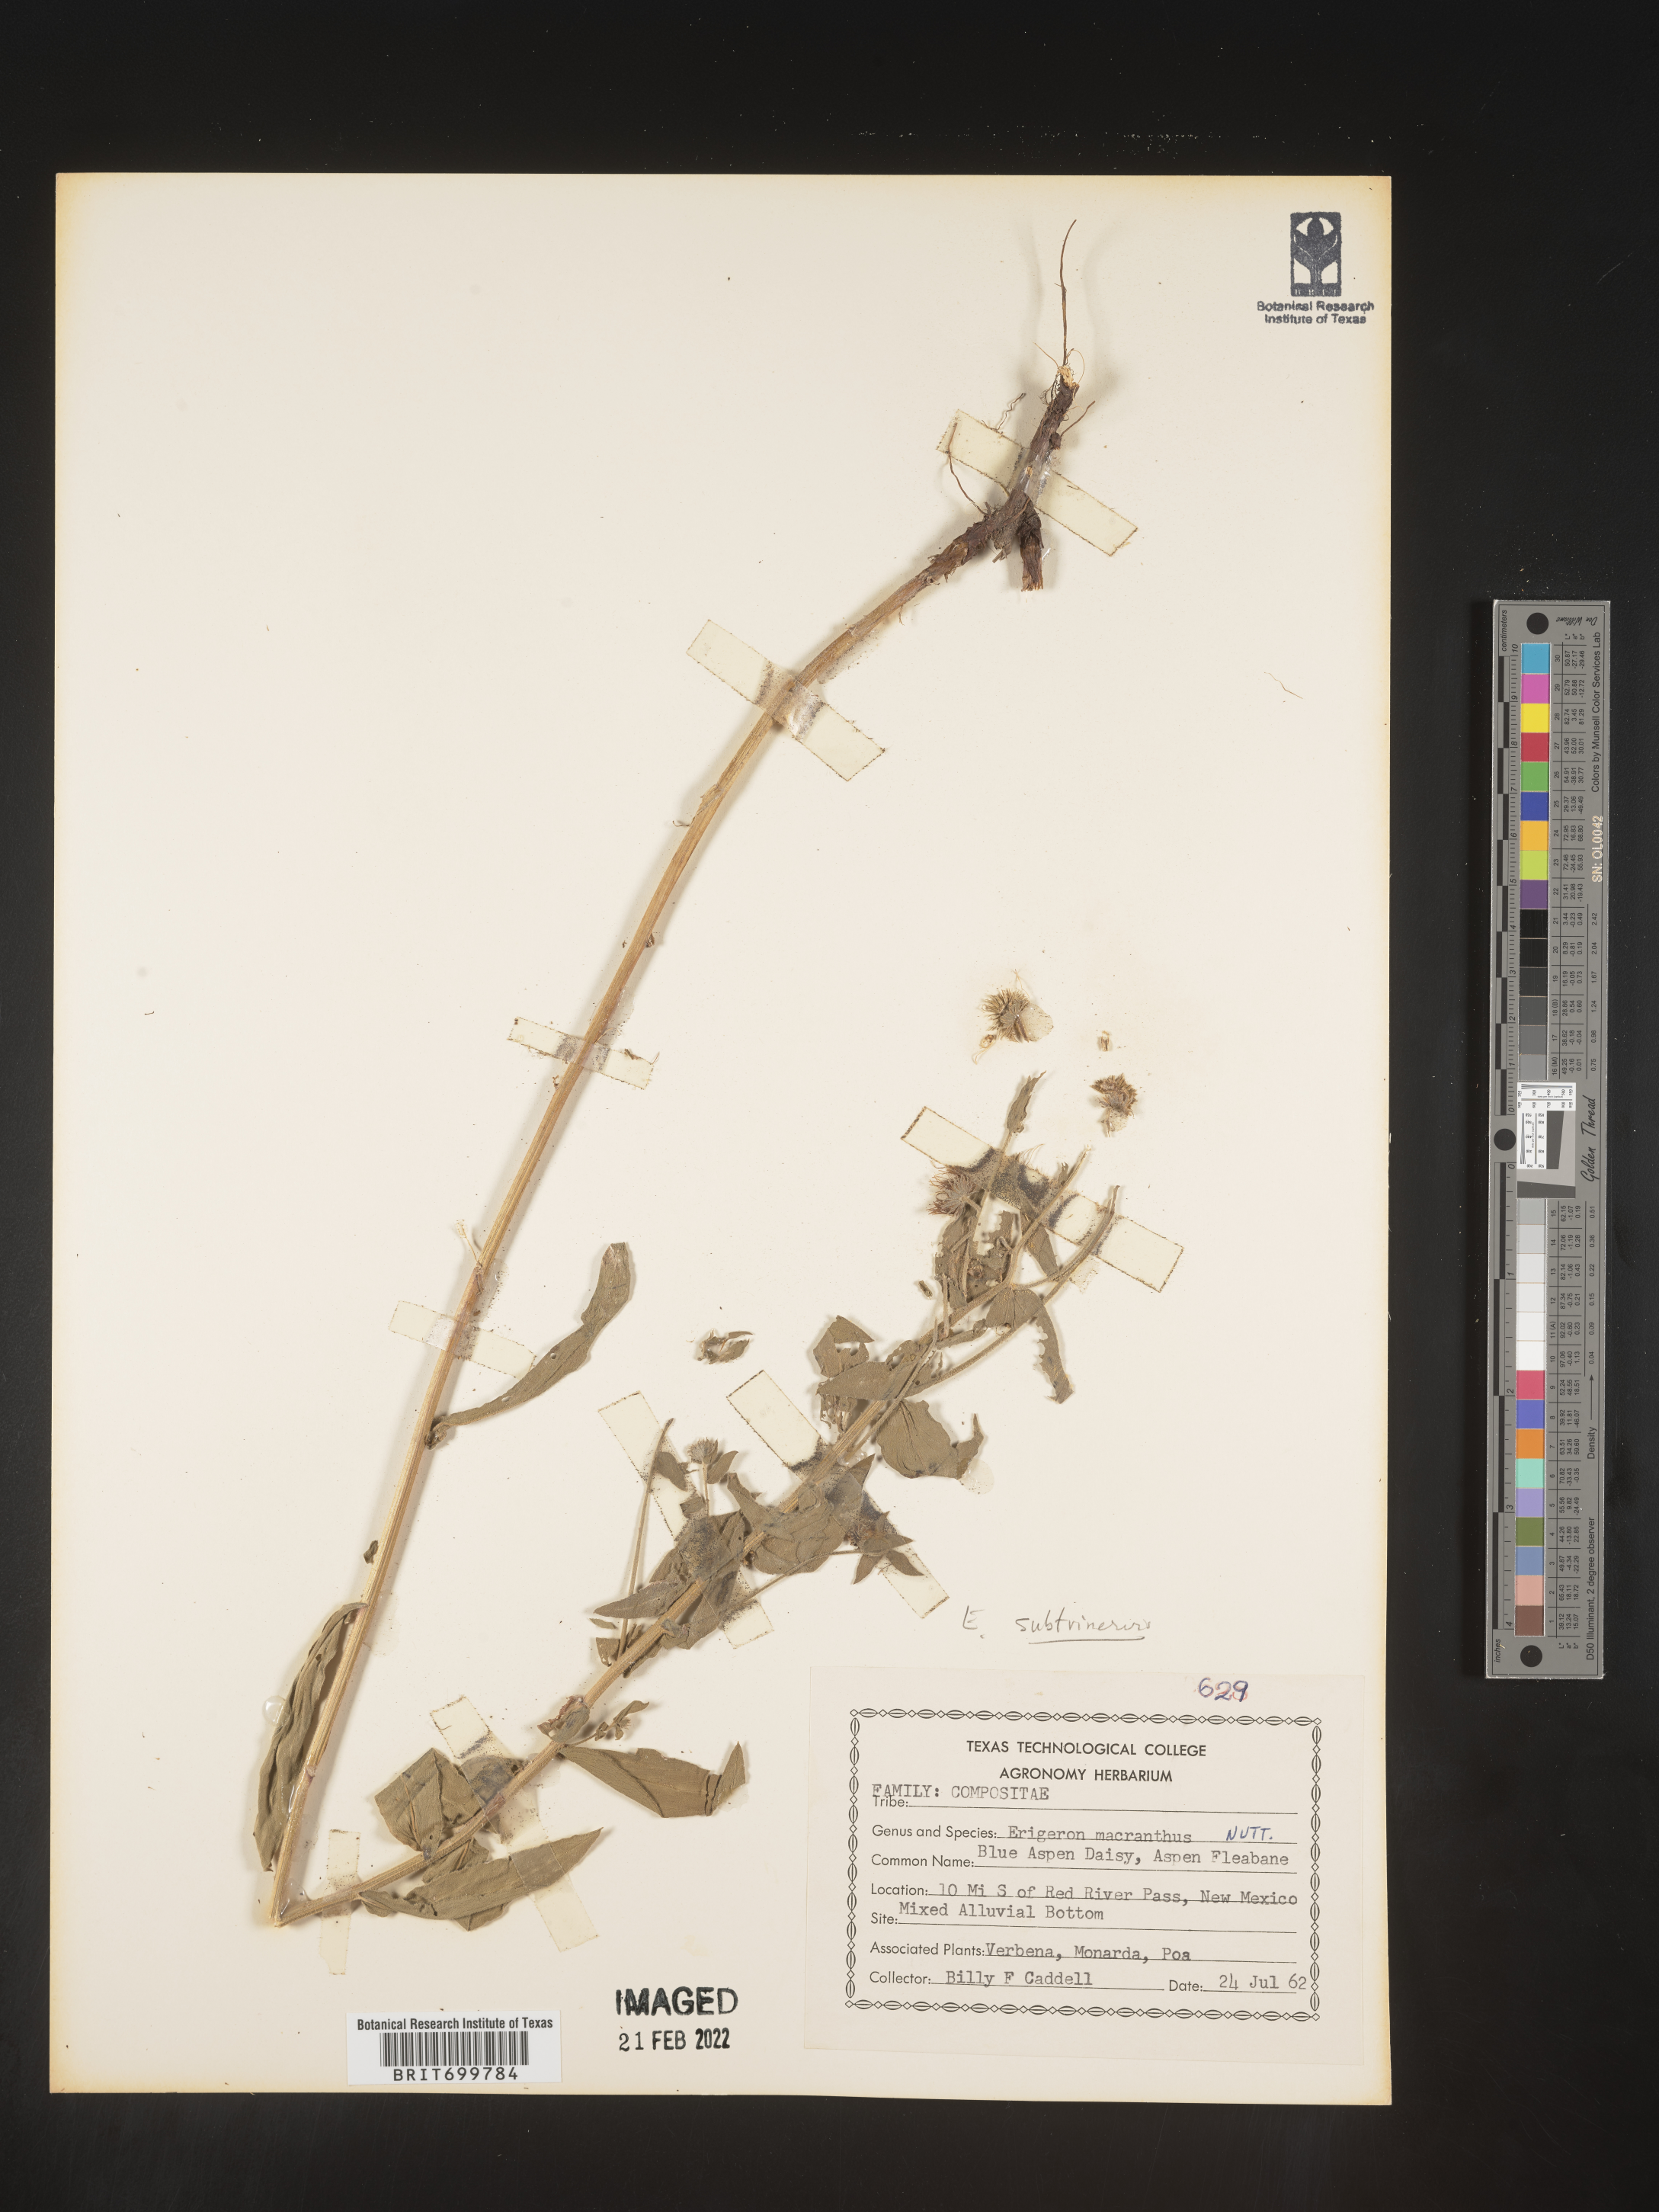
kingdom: Plantae
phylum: Tracheophyta
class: Magnoliopsida
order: Asterales
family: Asteraceae
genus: Erigeron
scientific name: Erigeron subtrinervis
